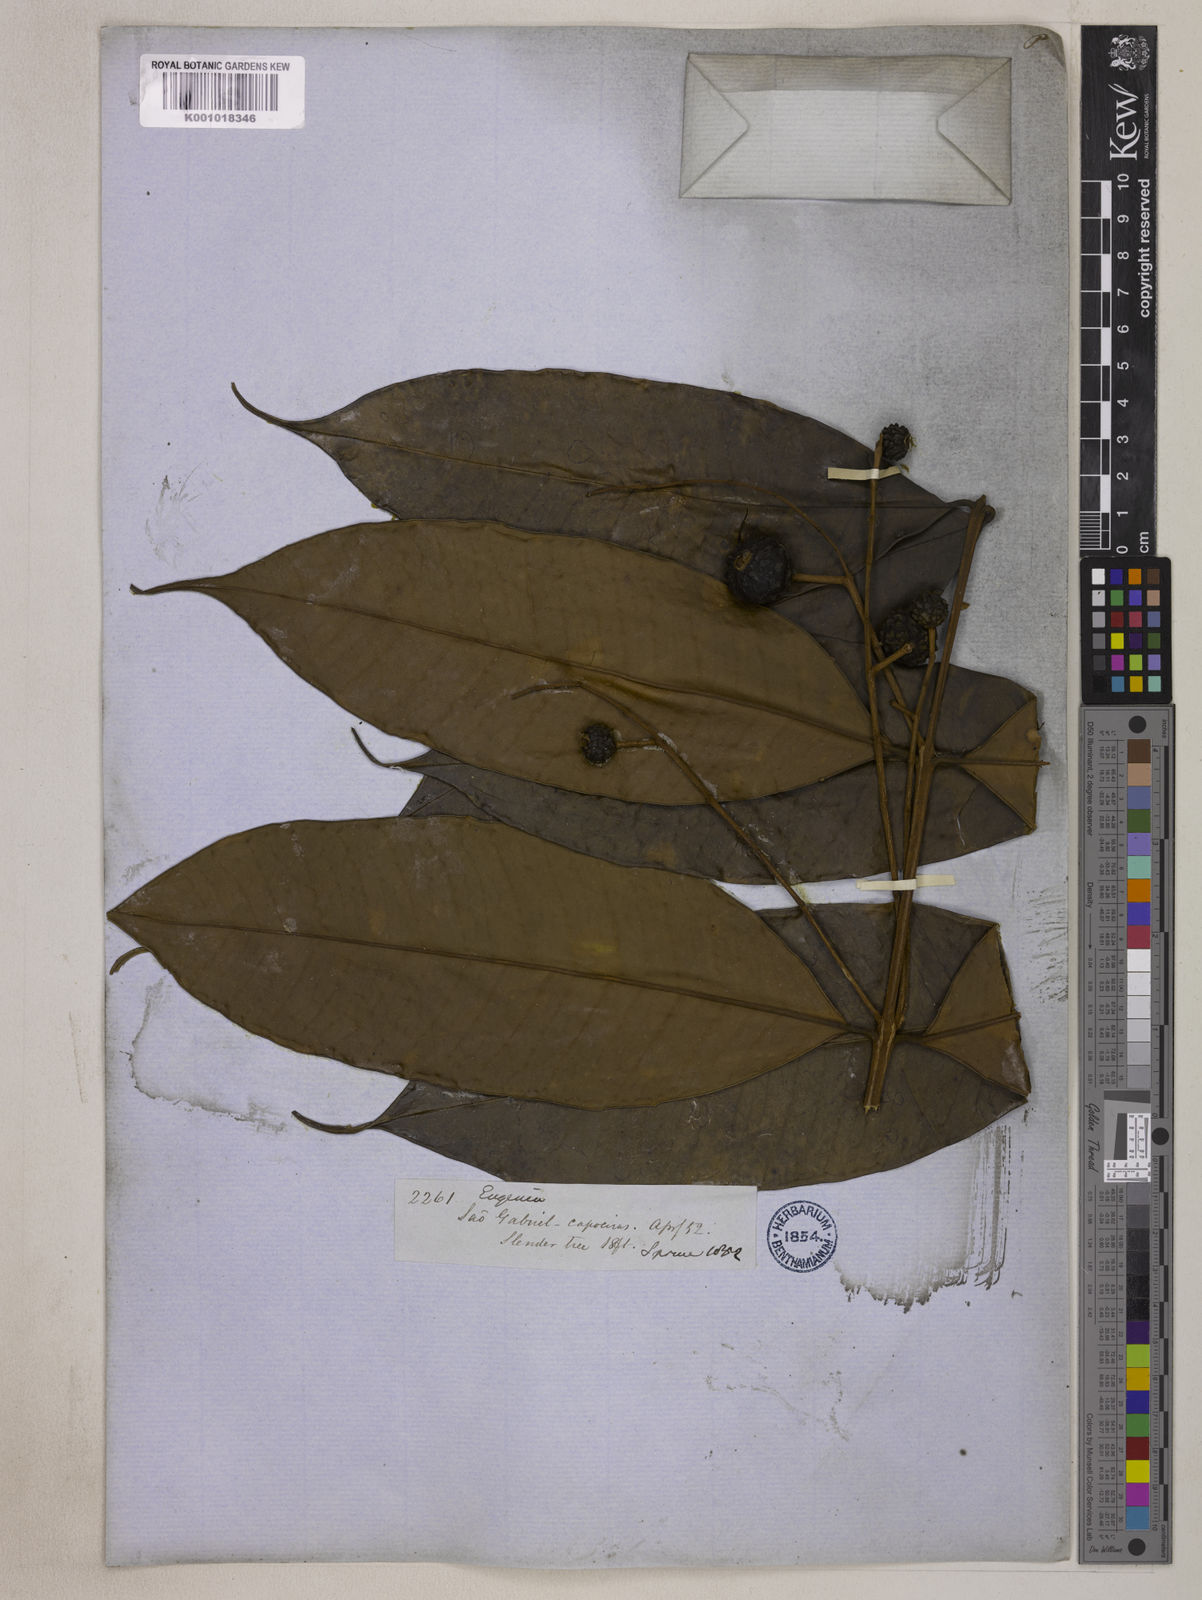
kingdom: Plantae
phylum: Tracheophyta
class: Magnoliopsida
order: Myrtales
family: Myrtaceae
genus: Eugenia
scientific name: Eugenia muricata
